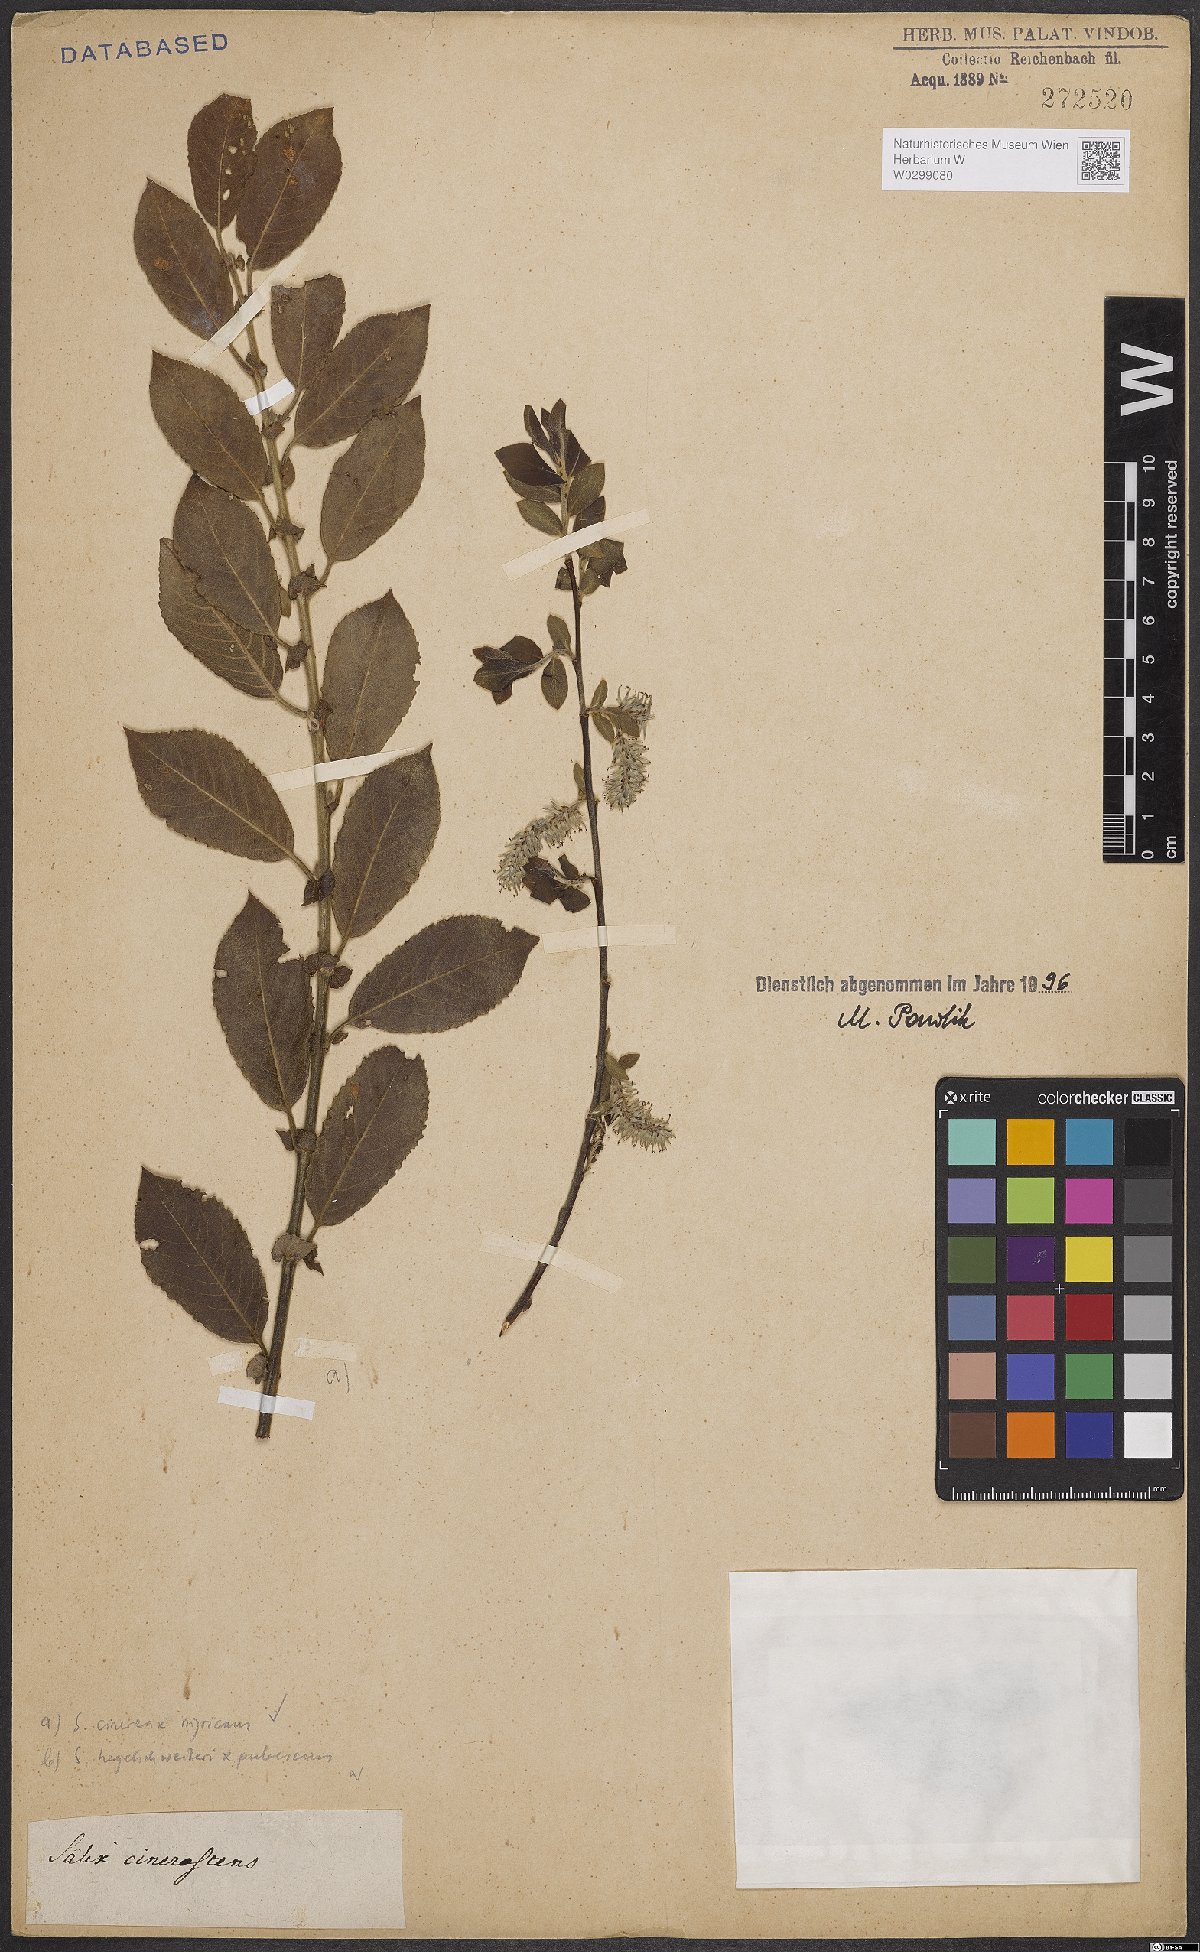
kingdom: Plantae
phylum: Tracheophyta
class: Magnoliopsida
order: Malpighiales
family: Salicaceae
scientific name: Salicaceae
